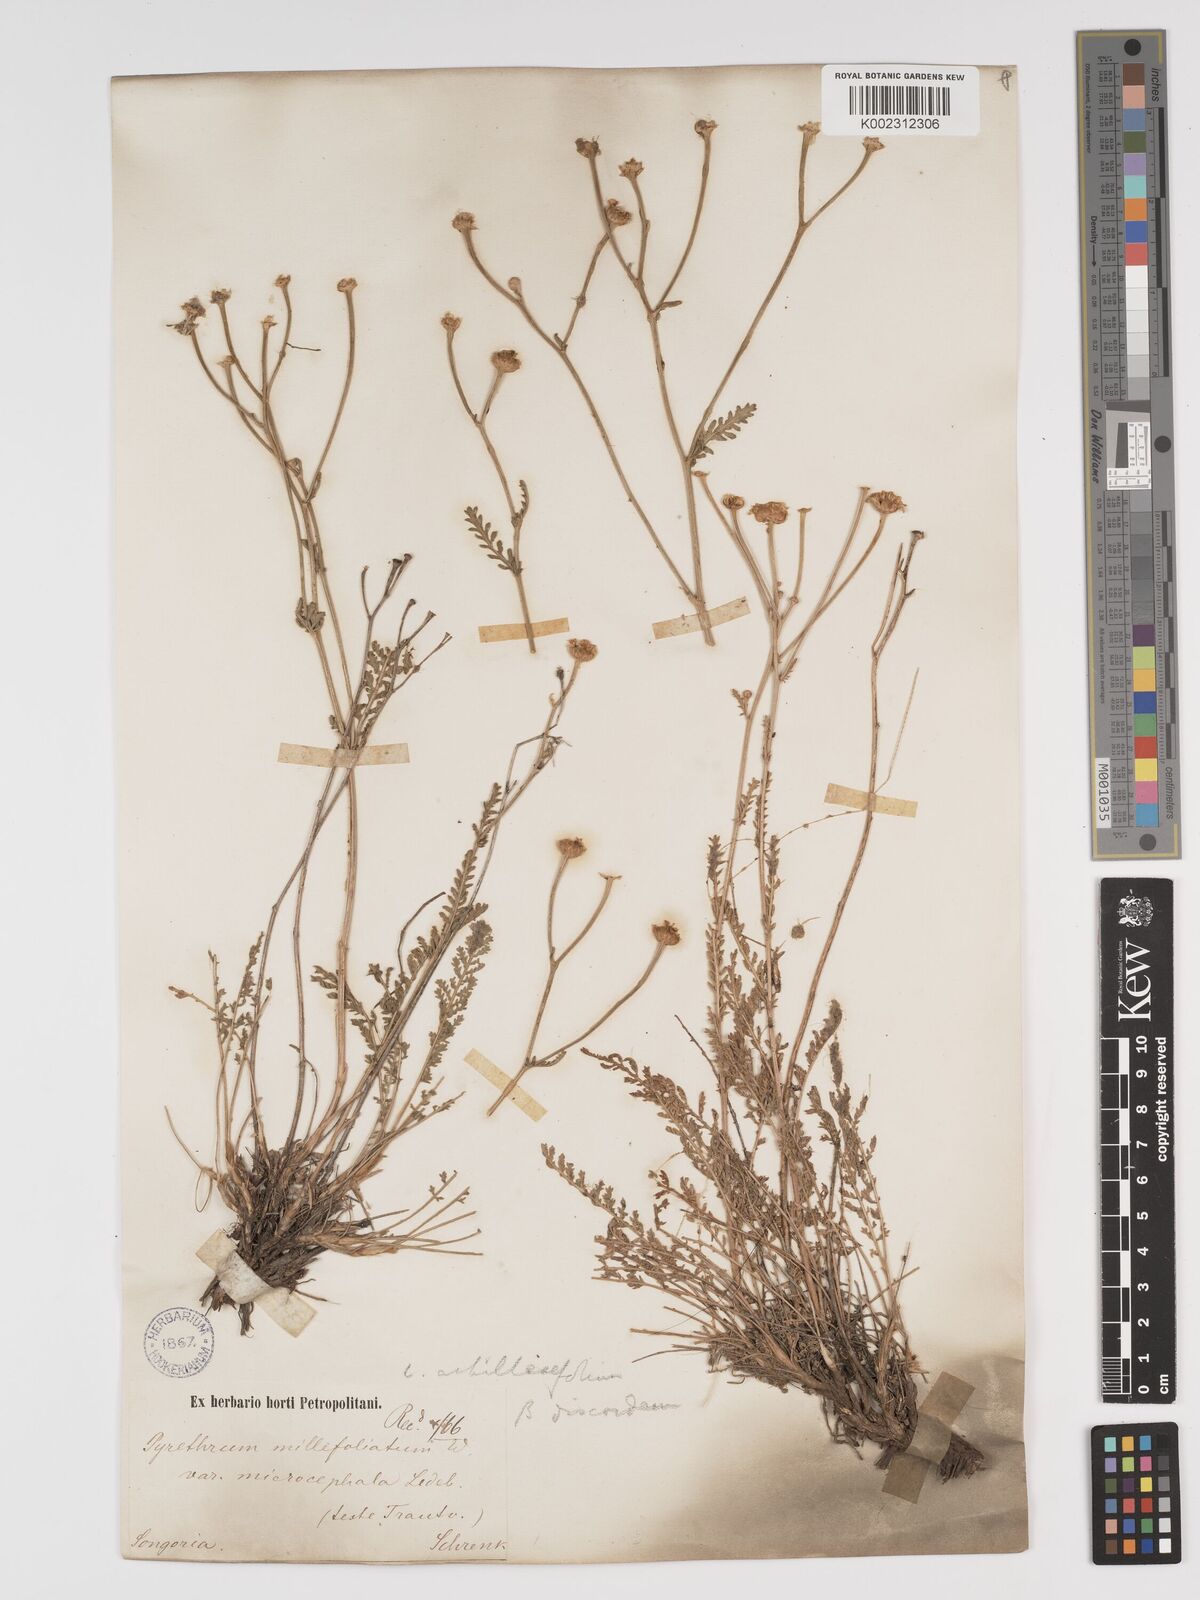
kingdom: Plantae
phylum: Tracheophyta
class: Magnoliopsida
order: Asterales
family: Asteraceae
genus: Tanacetum
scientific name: Tanacetum barclayanum
